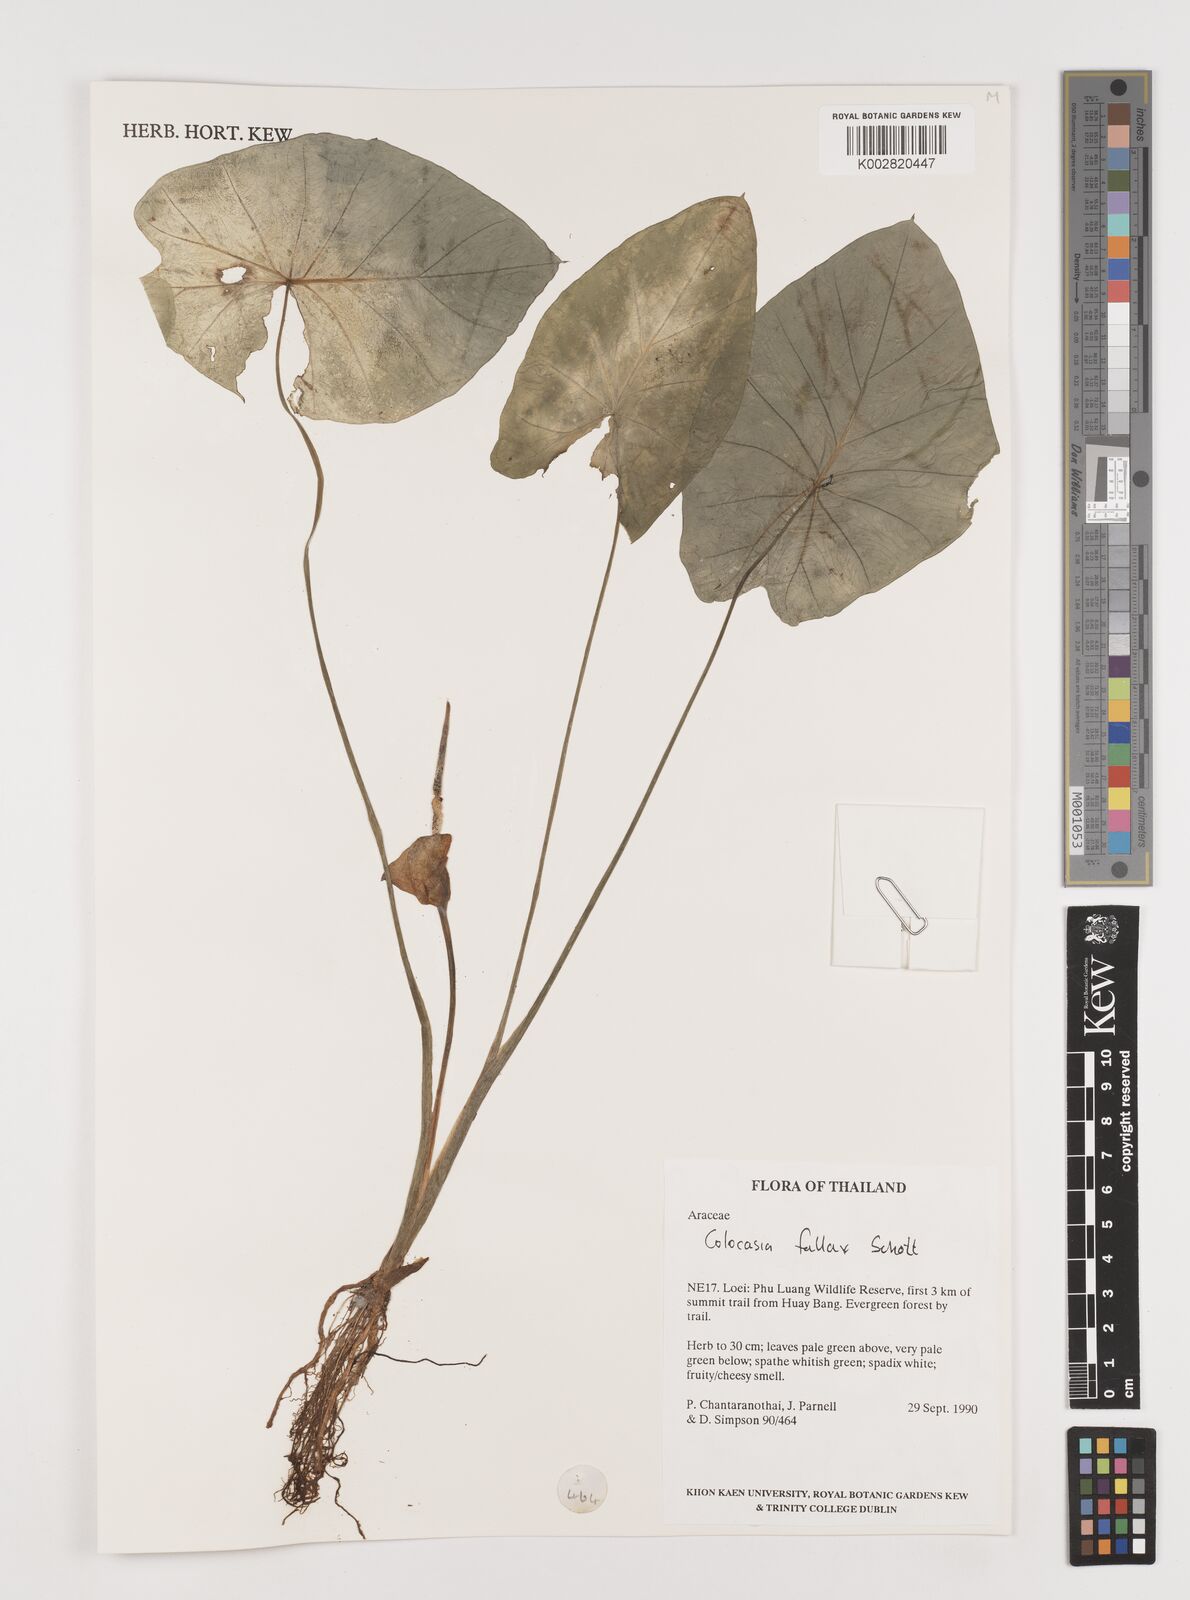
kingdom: Plantae
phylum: Tracheophyta
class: Liliopsida
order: Alismatales
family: Araceae
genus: Colocasia
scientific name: Colocasia fallax
